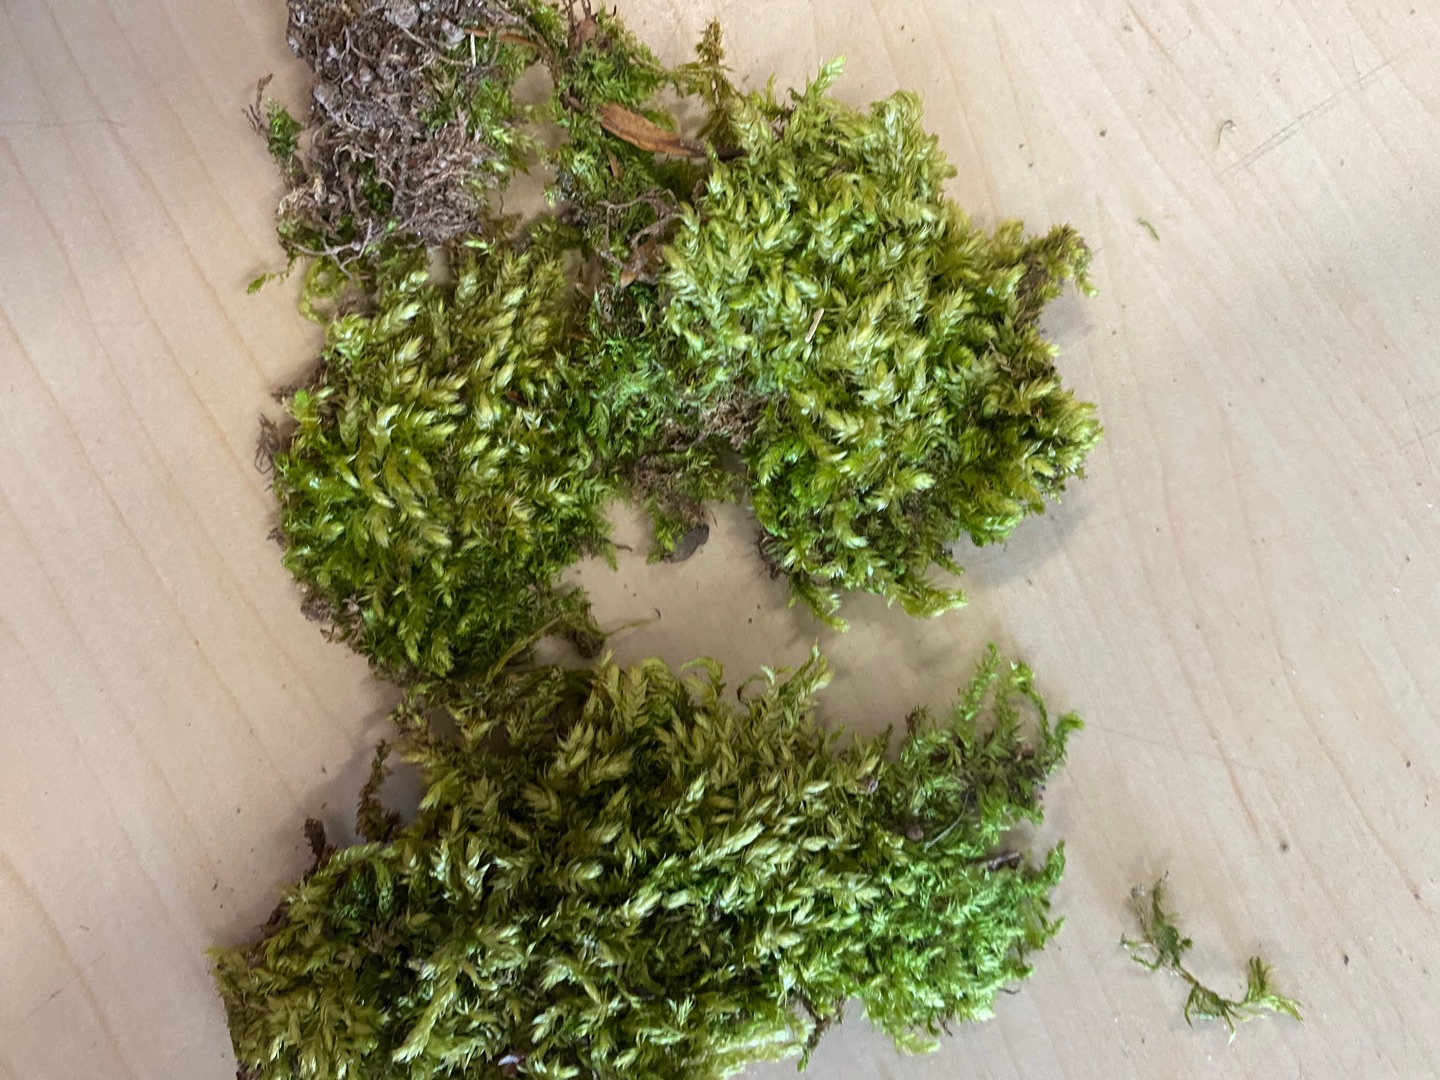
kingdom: Plantae
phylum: Bryophyta
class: Bryopsida
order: Hypnales
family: Brachytheciaceae
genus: Brachythecium
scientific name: Brachythecium rutabulum
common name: Almindelig kortkapsel
